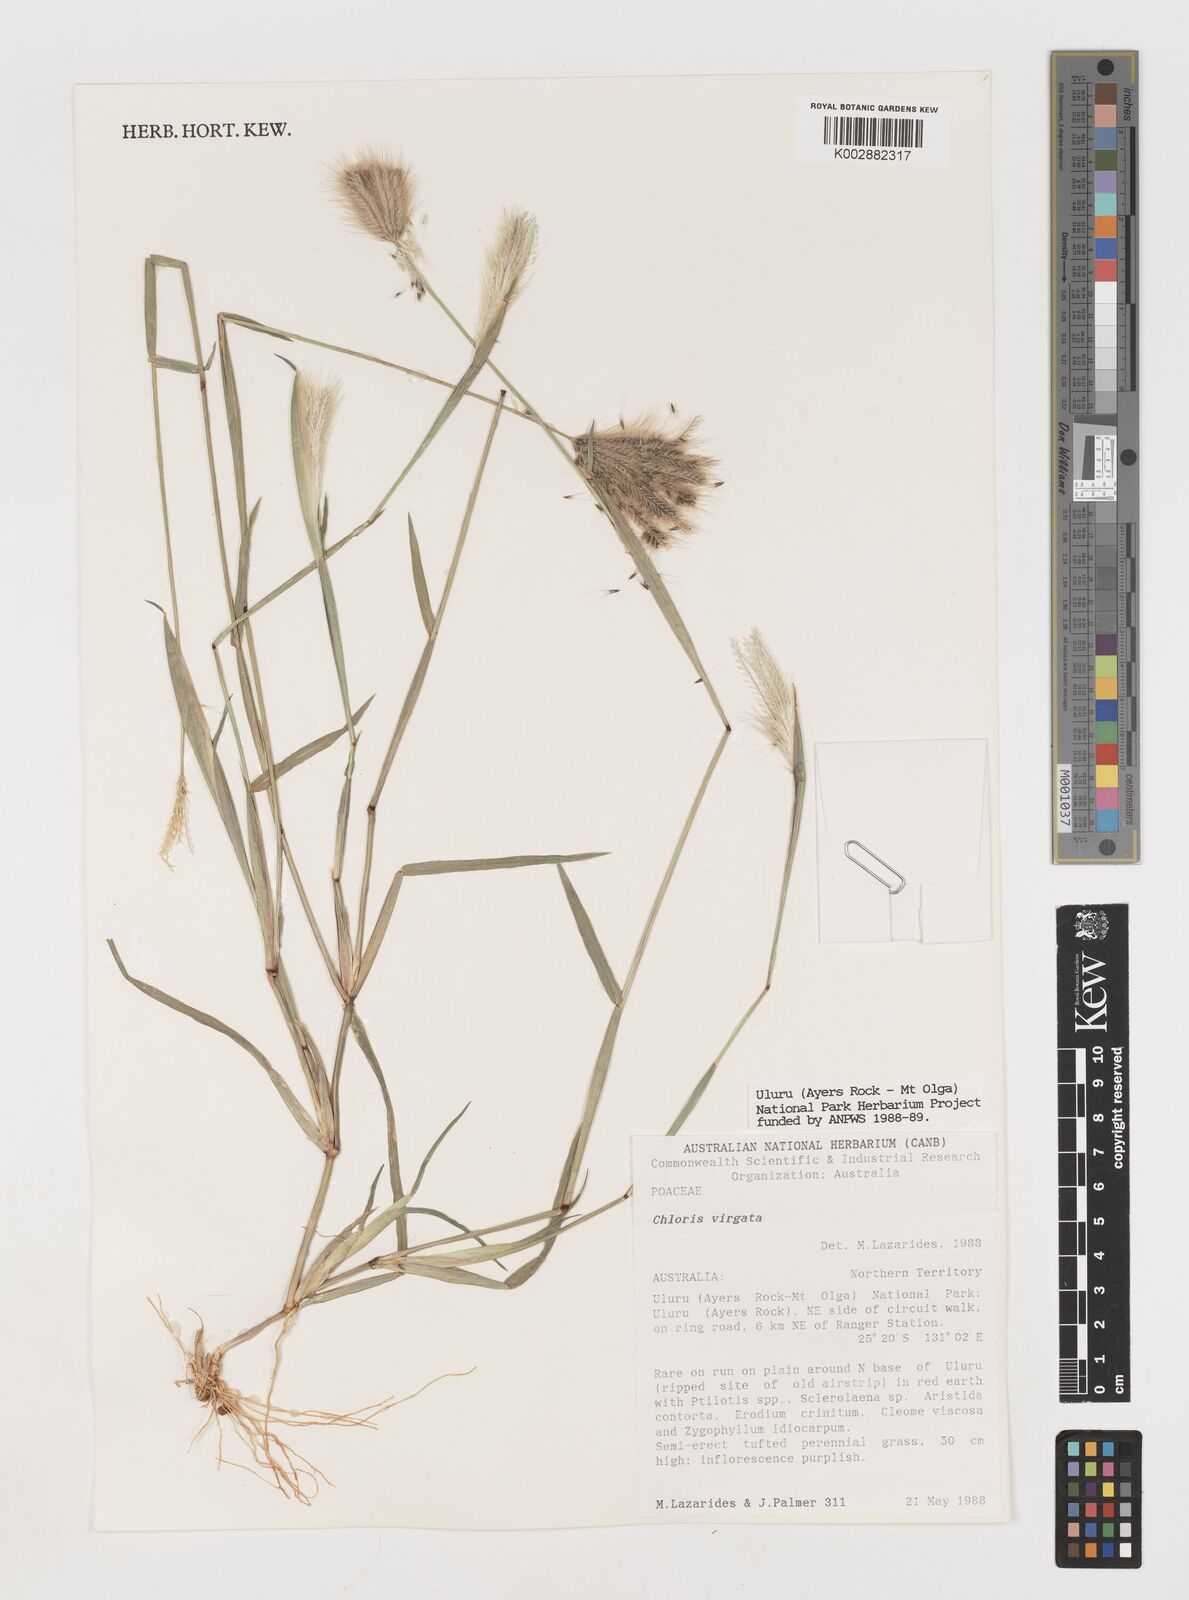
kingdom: Plantae
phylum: Tracheophyta
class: Liliopsida
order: Poales
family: Poaceae
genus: Chloris
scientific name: Chloris virgata
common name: Feathery rhodes-grass
